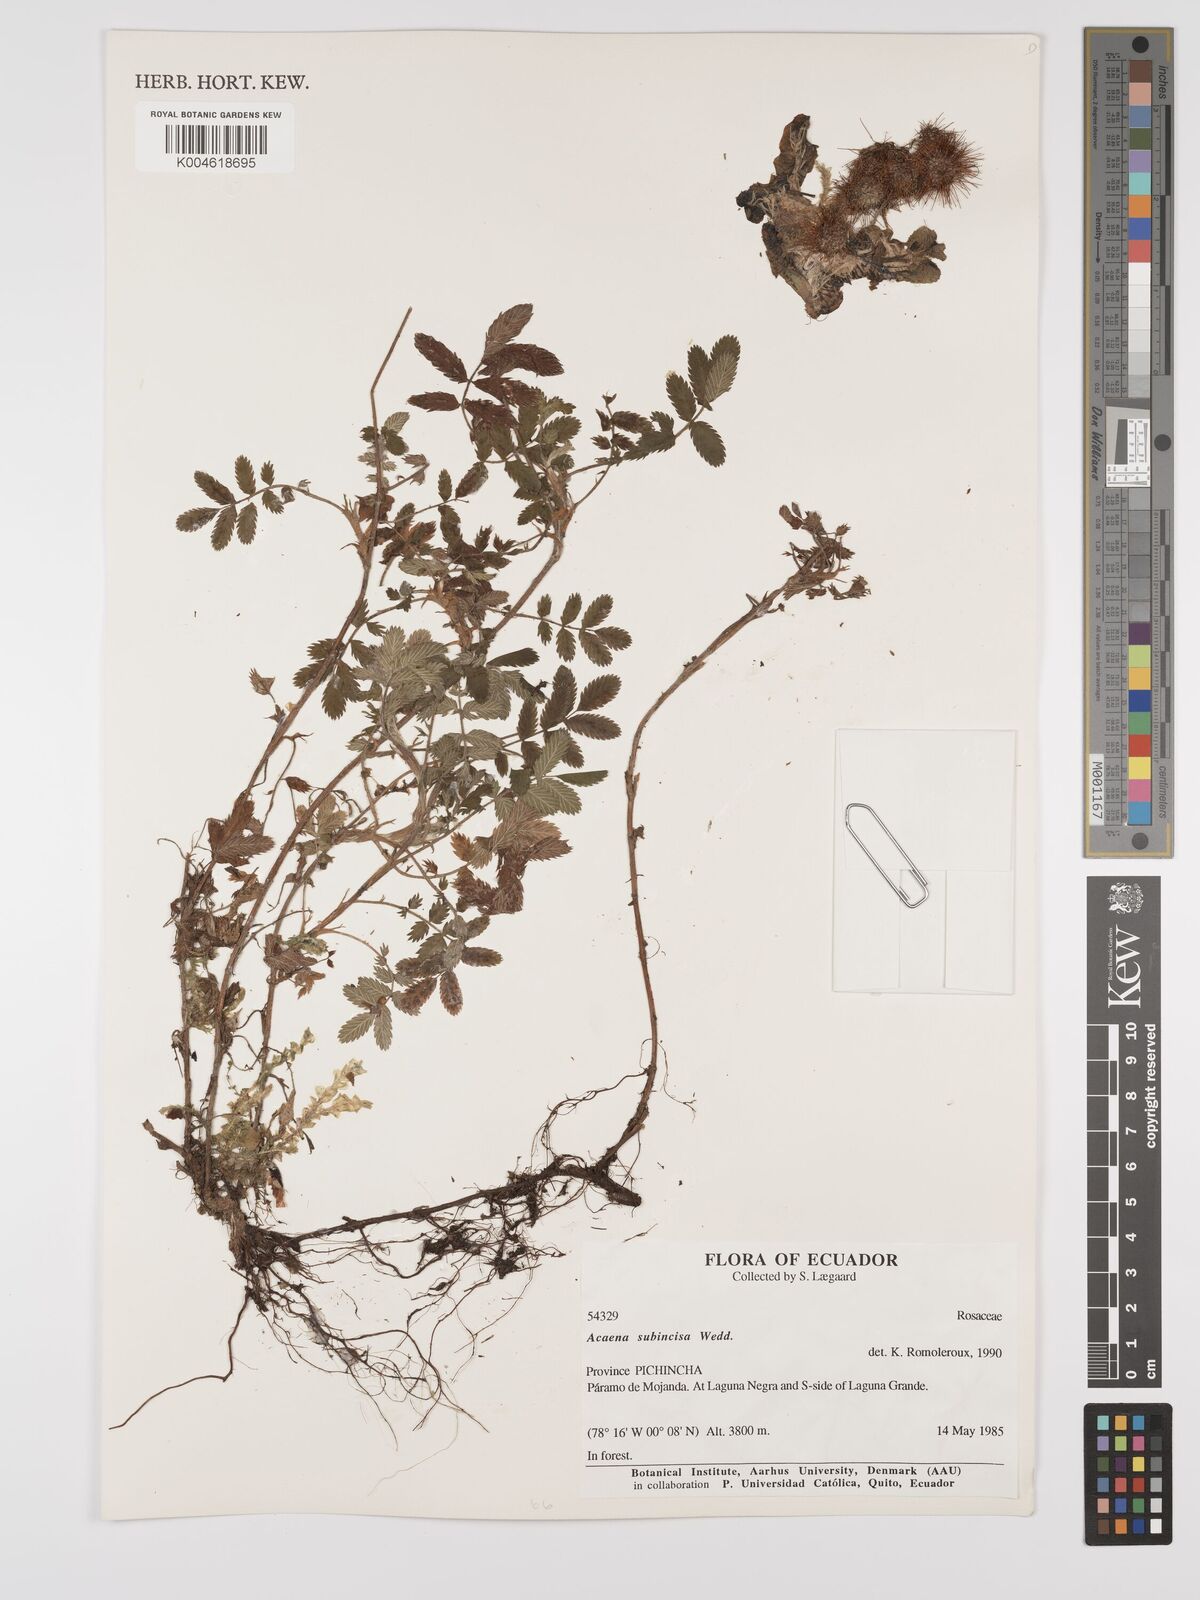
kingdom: Plantae
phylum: Tracheophyta
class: Magnoliopsida
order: Rosales
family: Rosaceae
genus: Acaena
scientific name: Acaena subincisa
